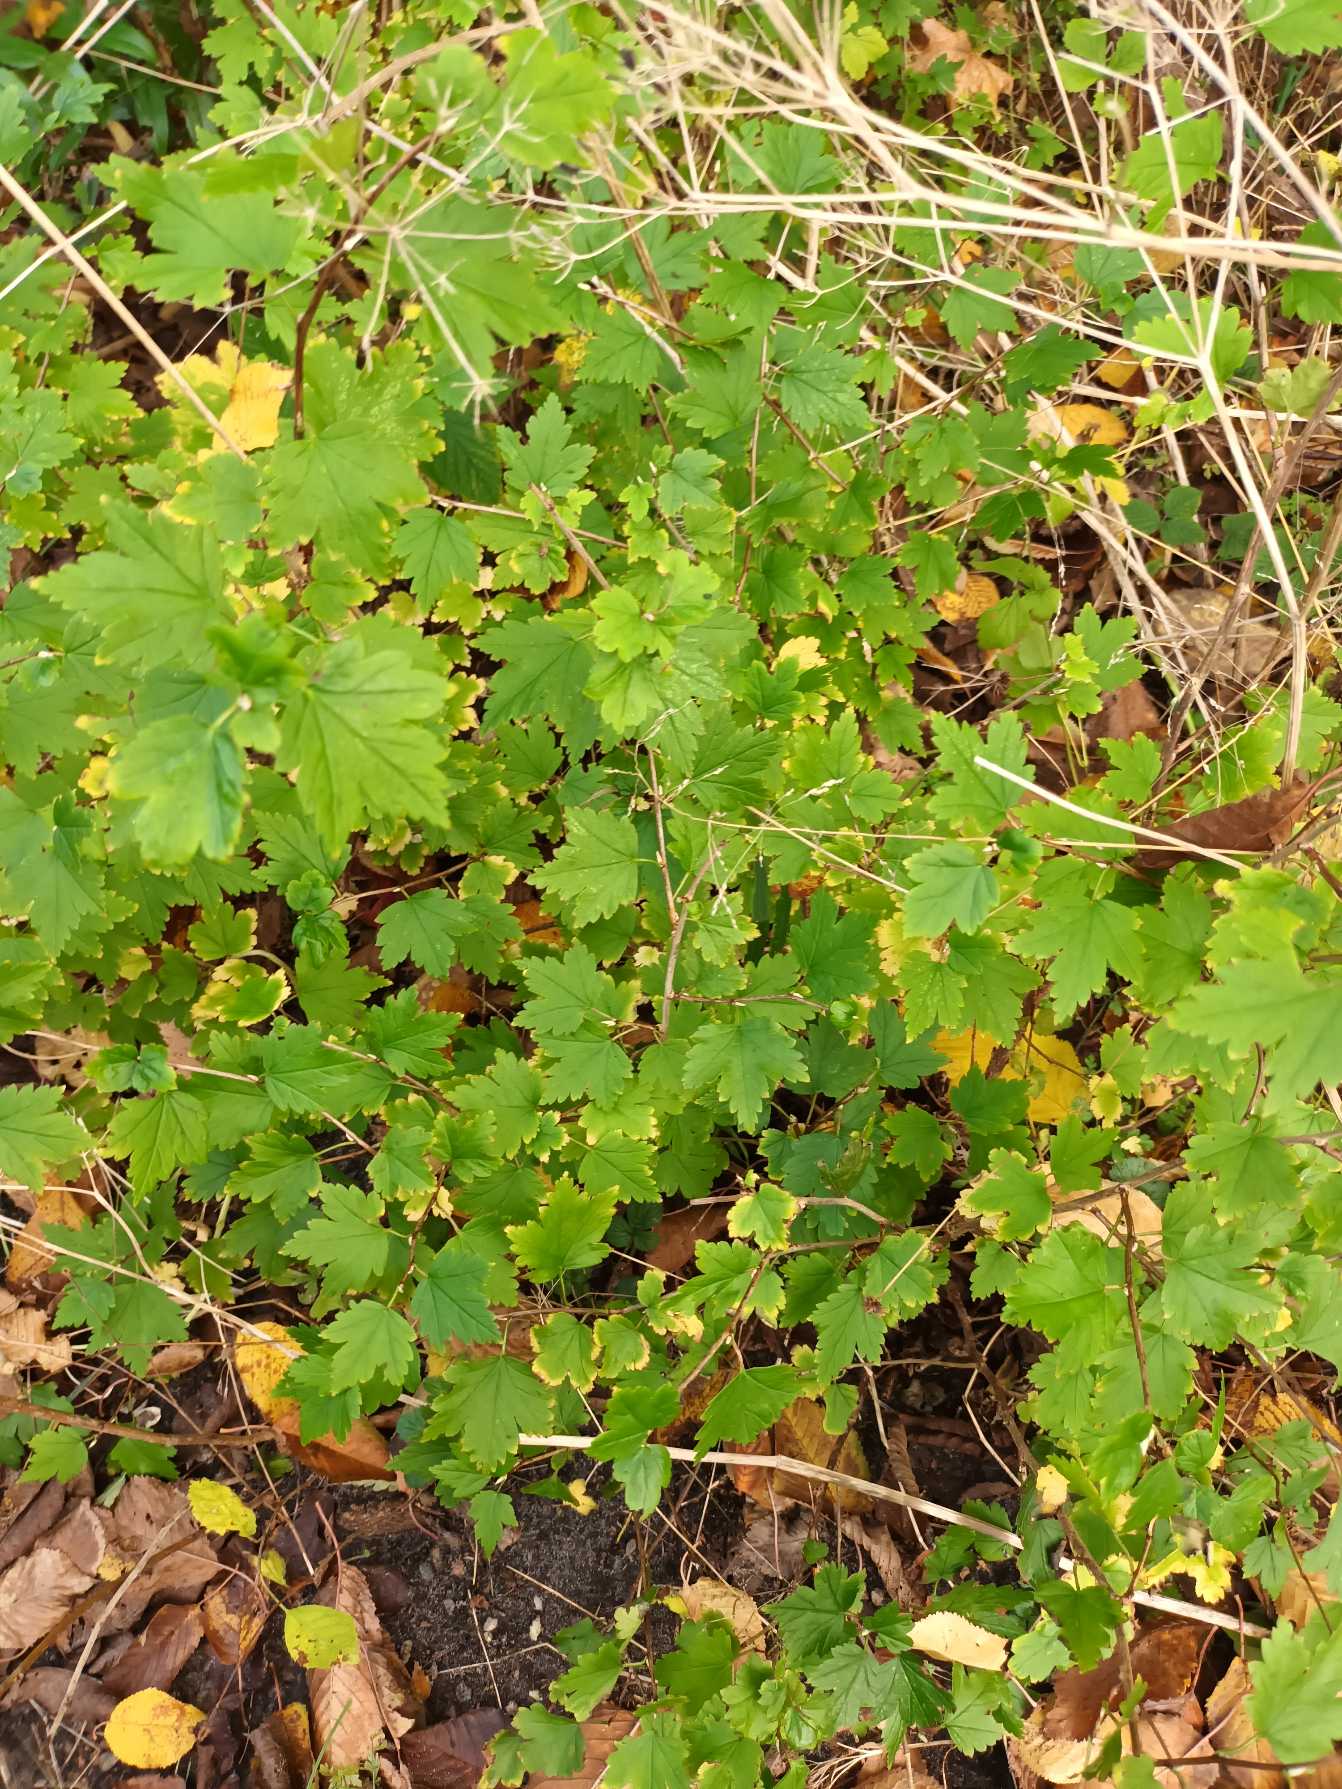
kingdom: Plantae
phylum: Tracheophyta
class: Magnoliopsida
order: Saxifragales
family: Grossulariaceae
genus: Ribes
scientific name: Ribes alpinum
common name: Fjeld-ribs
